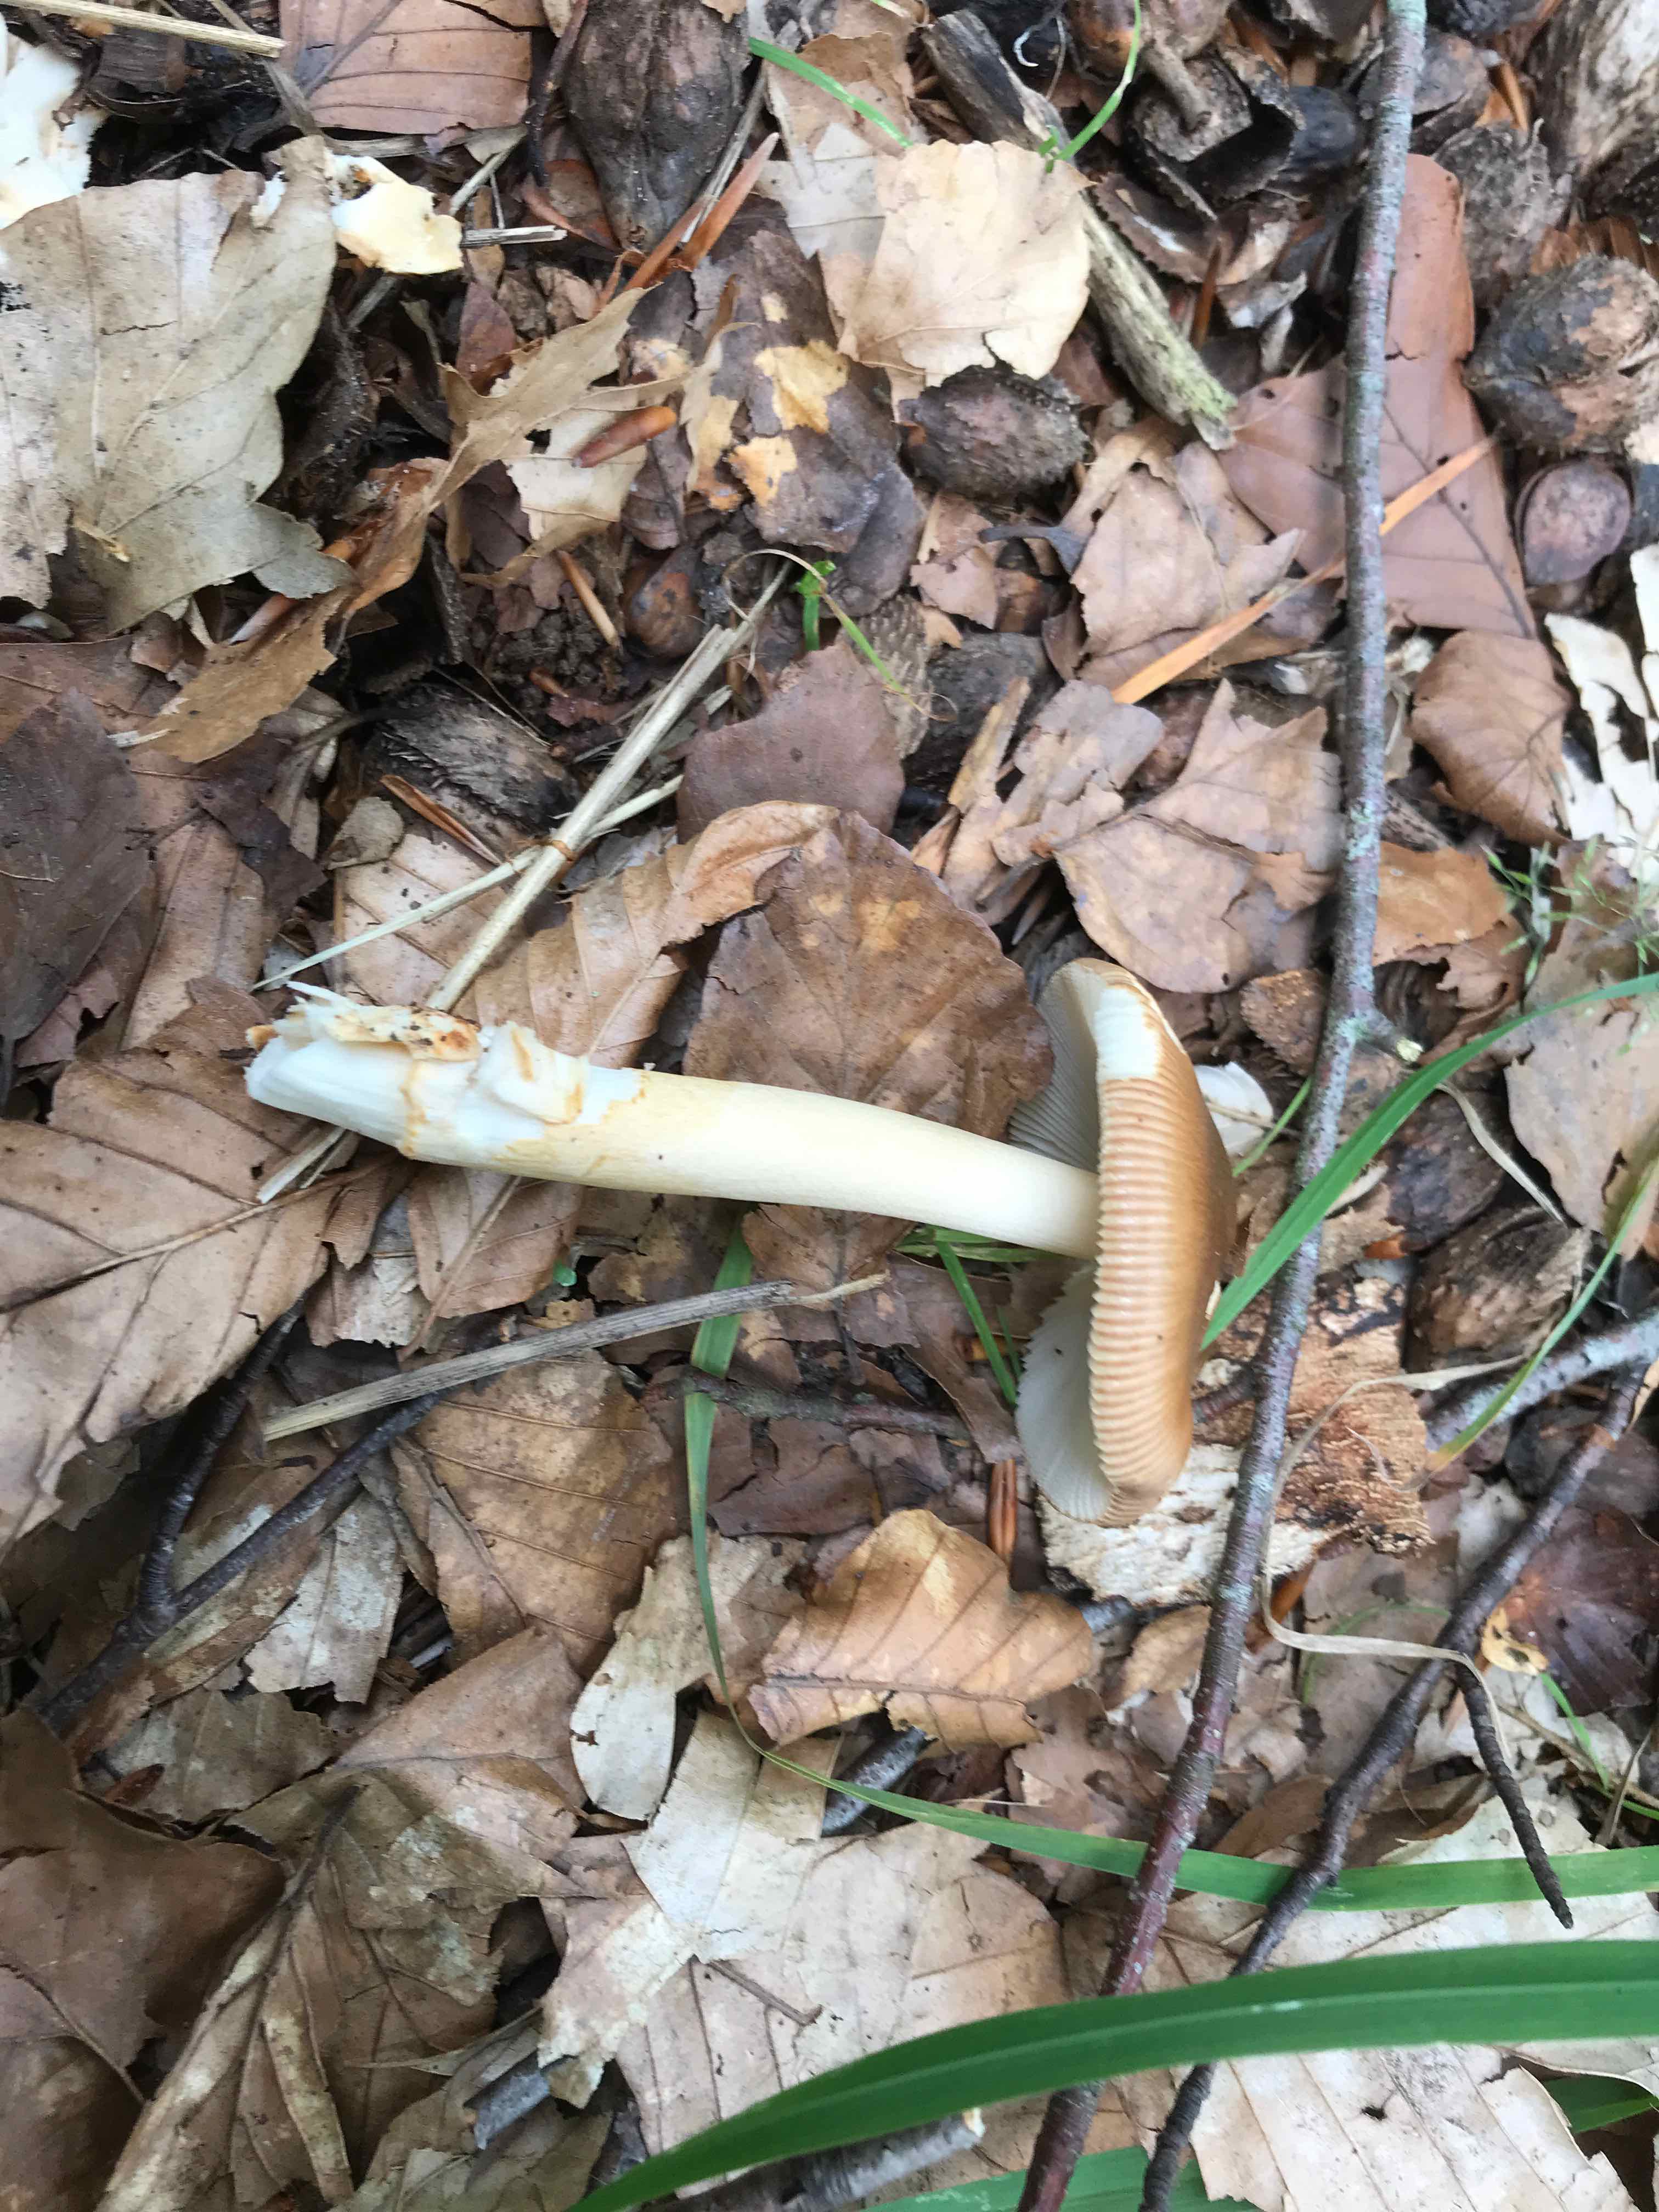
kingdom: Fungi
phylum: Basidiomycota
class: Agaricomycetes
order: Agaricales
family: Amanitaceae
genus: Amanita
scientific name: Amanita fulva
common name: brun kam-fluesvamp
